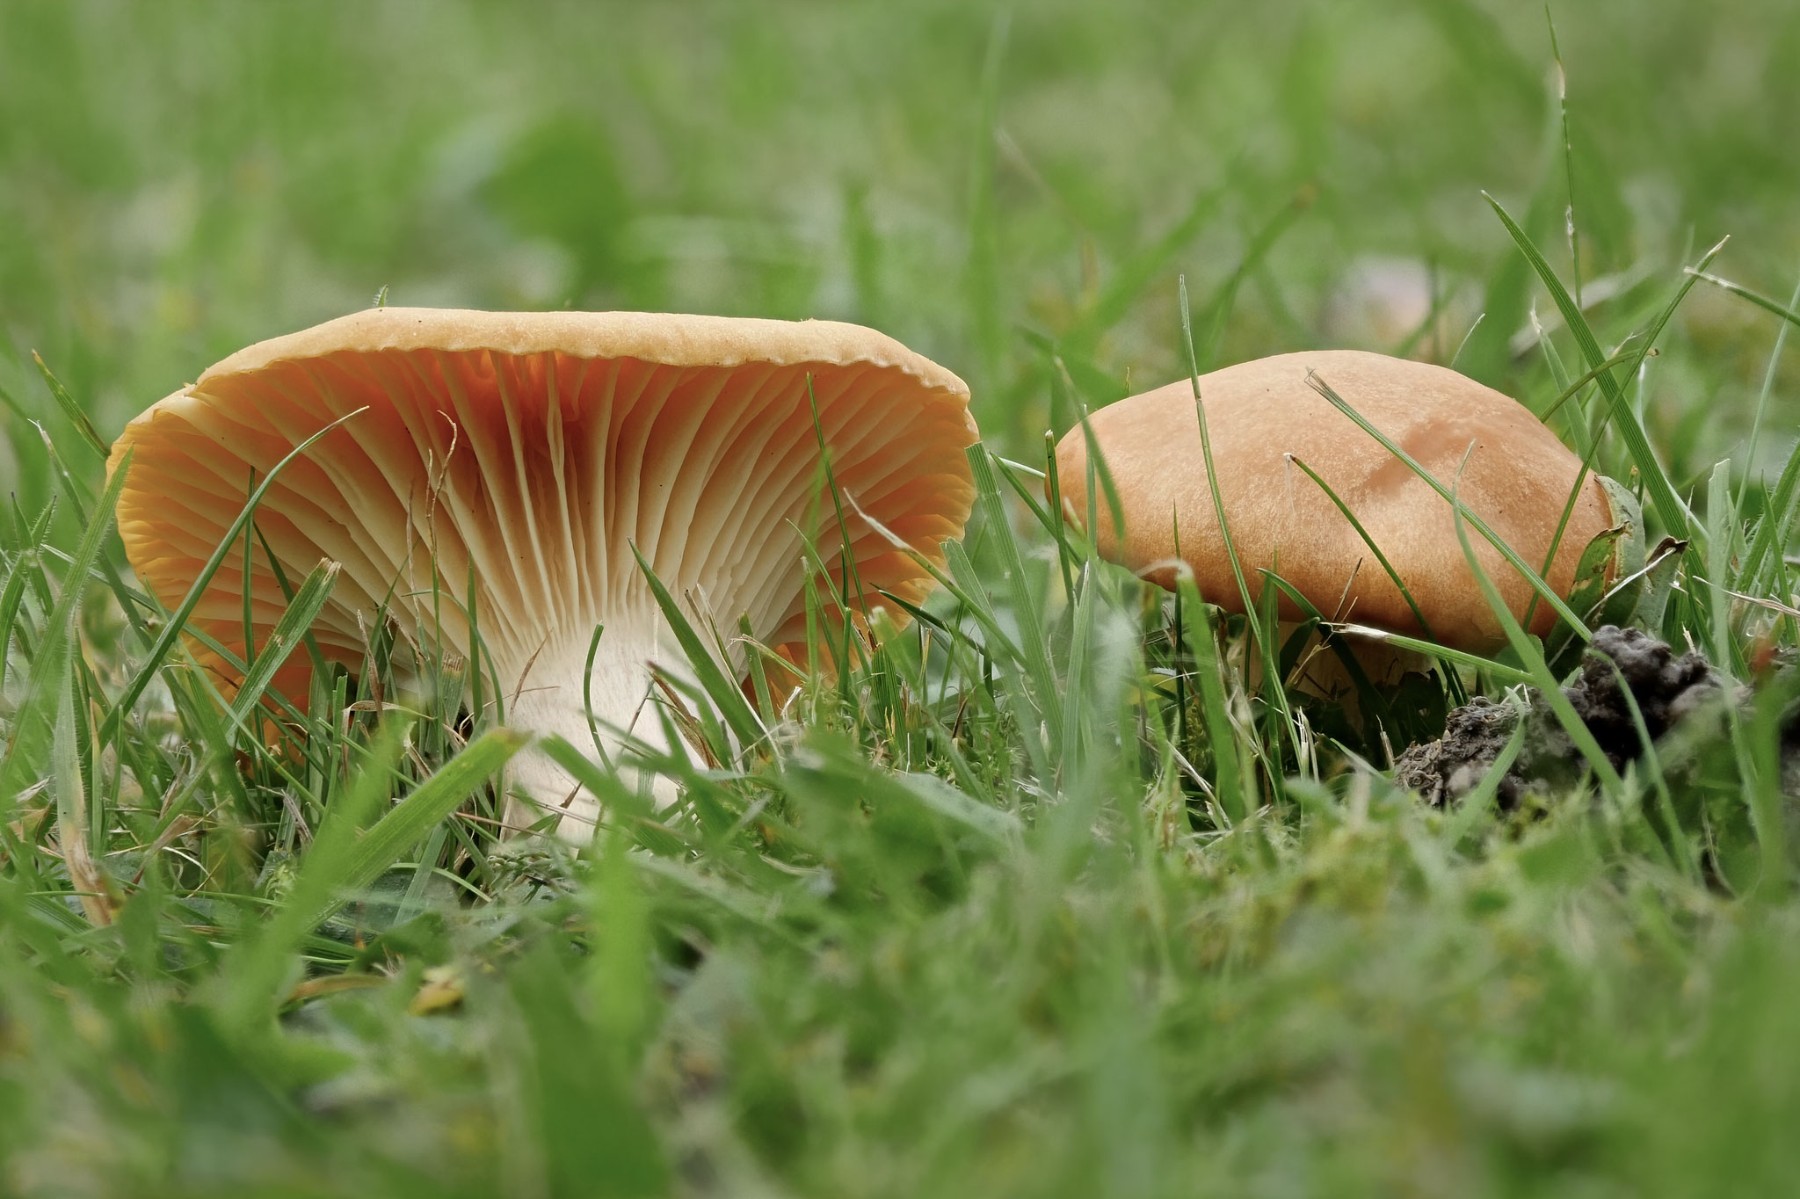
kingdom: Fungi
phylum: Basidiomycota
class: Agaricomycetes
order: Agaricales
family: Hygrophoraceae
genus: Cuphophyllus
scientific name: Cuphophyllus pratensis
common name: eng-vokshat
